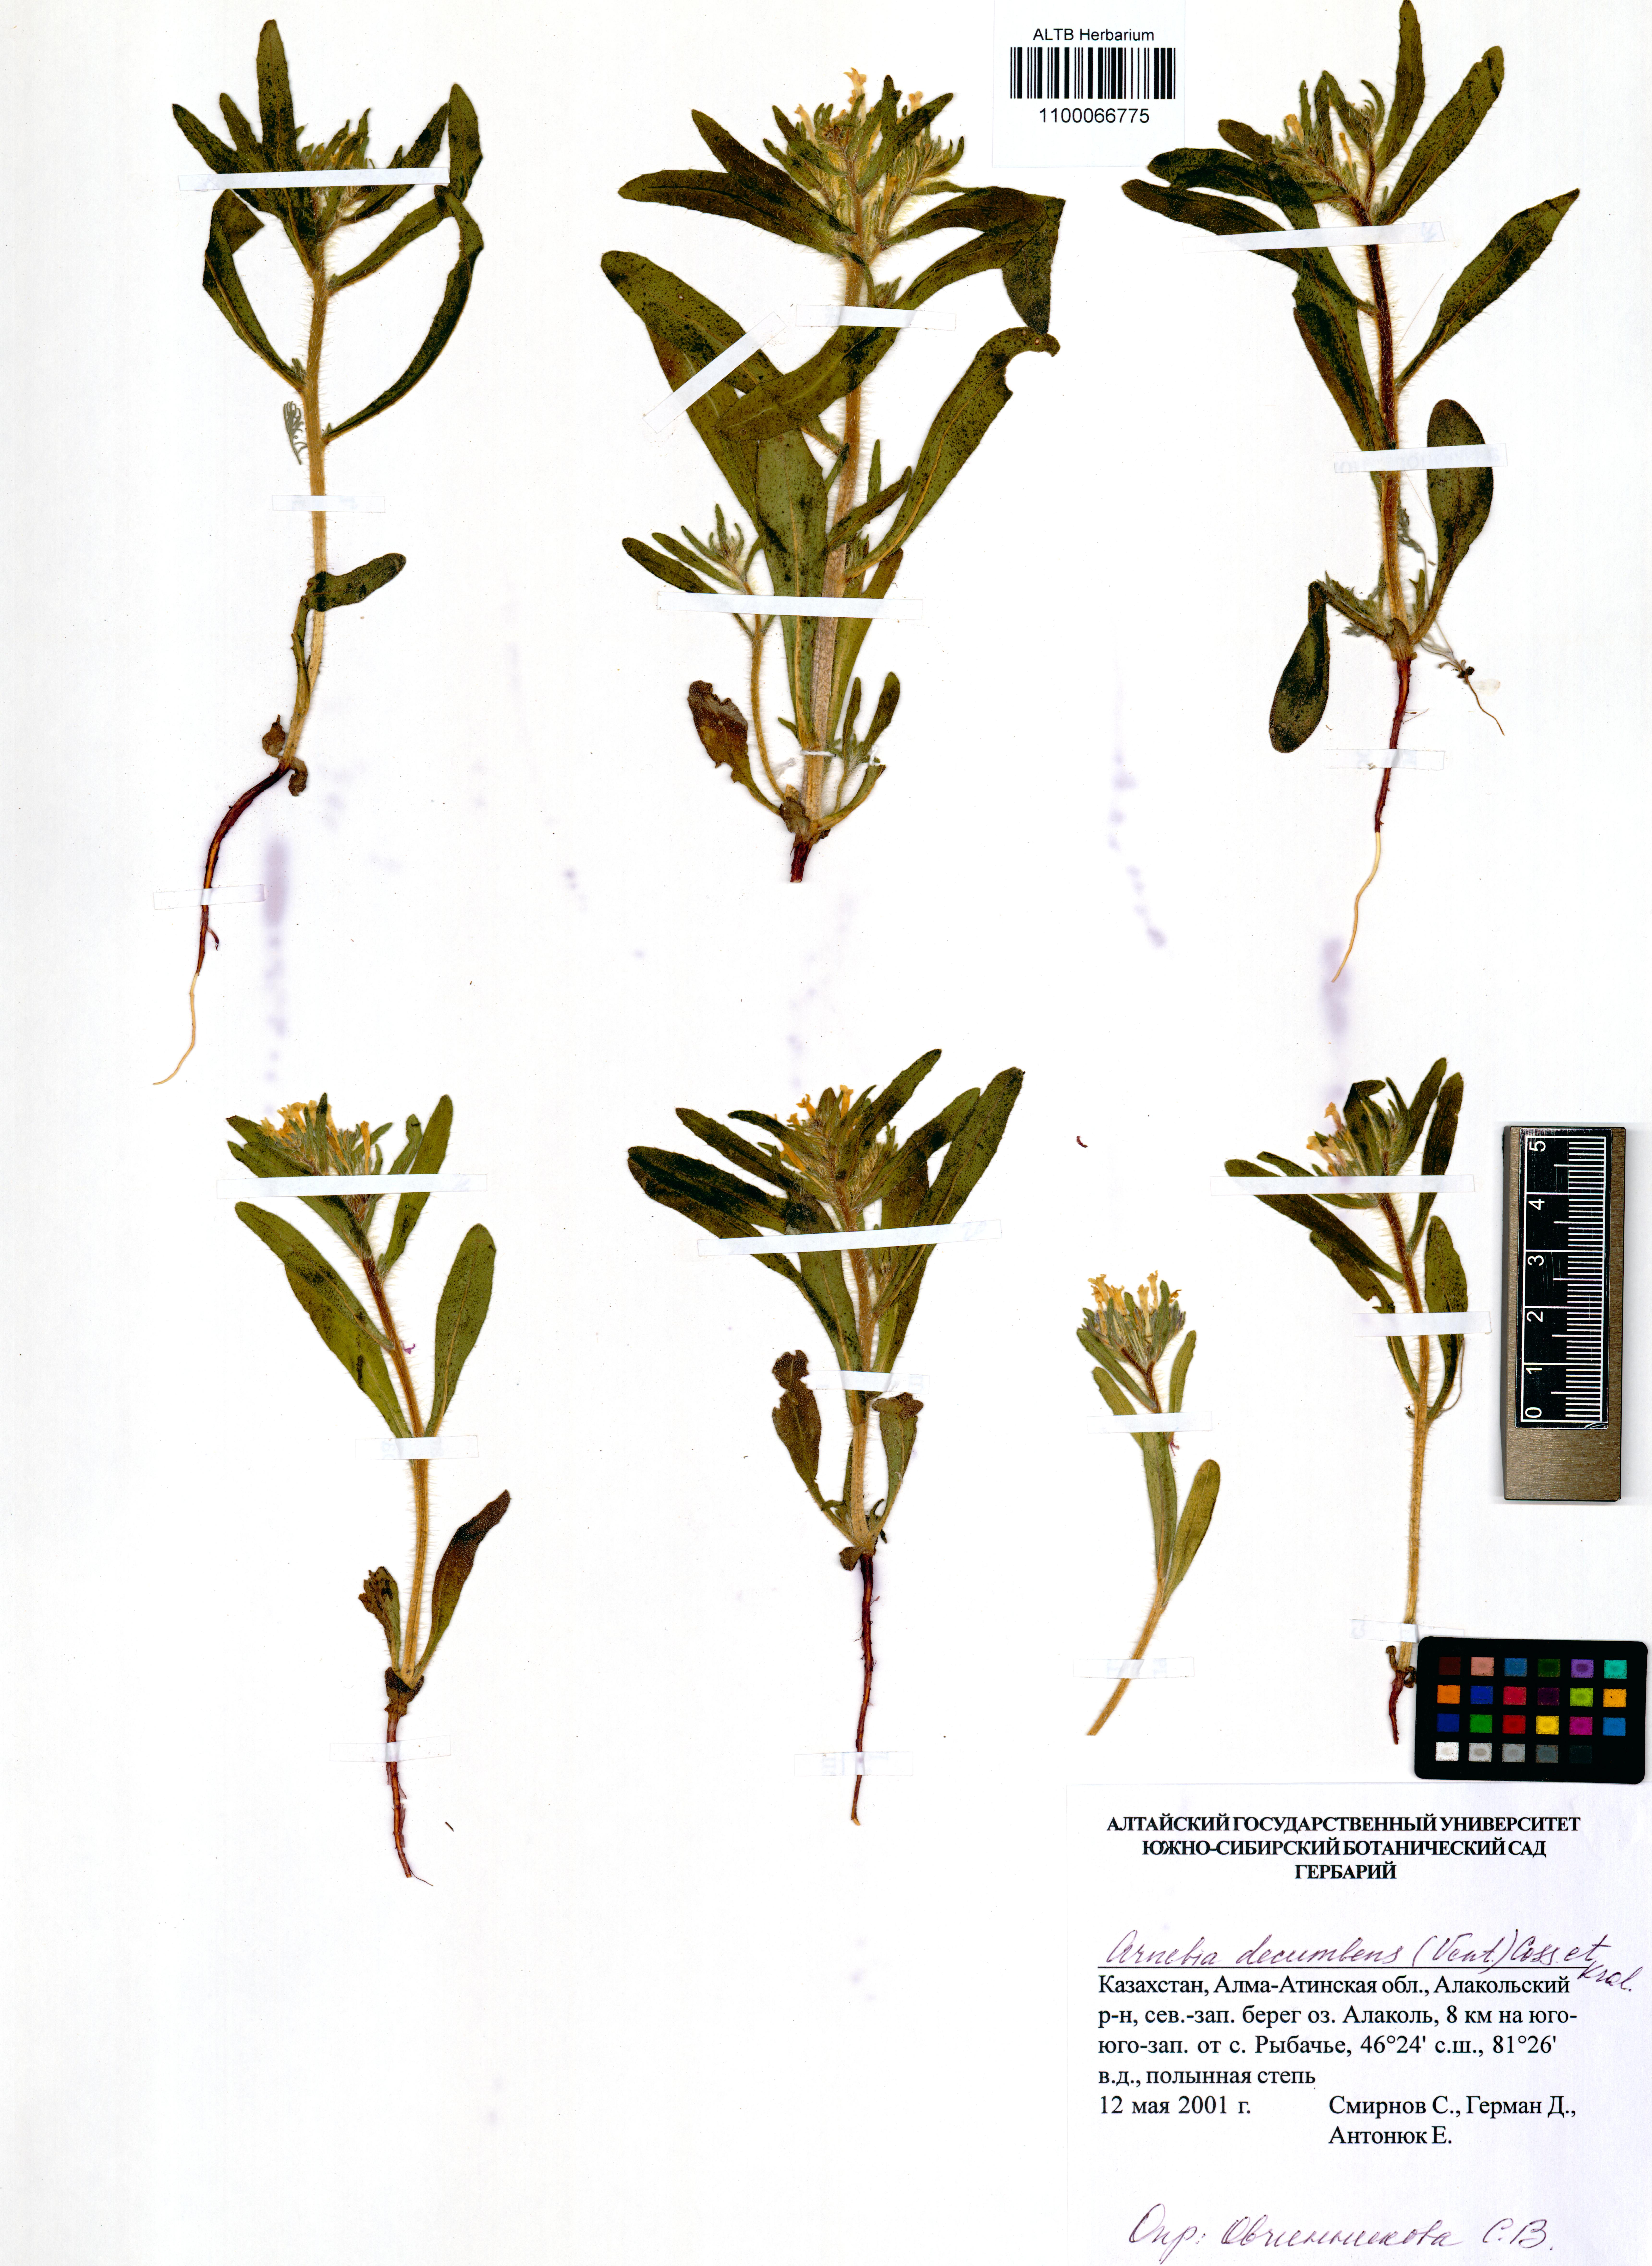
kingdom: Plantae
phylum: Tracheophyta
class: Magnoliopsida
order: Boraginales
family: Boraginaceae
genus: Arnebia
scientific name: Arnebia decumbens
